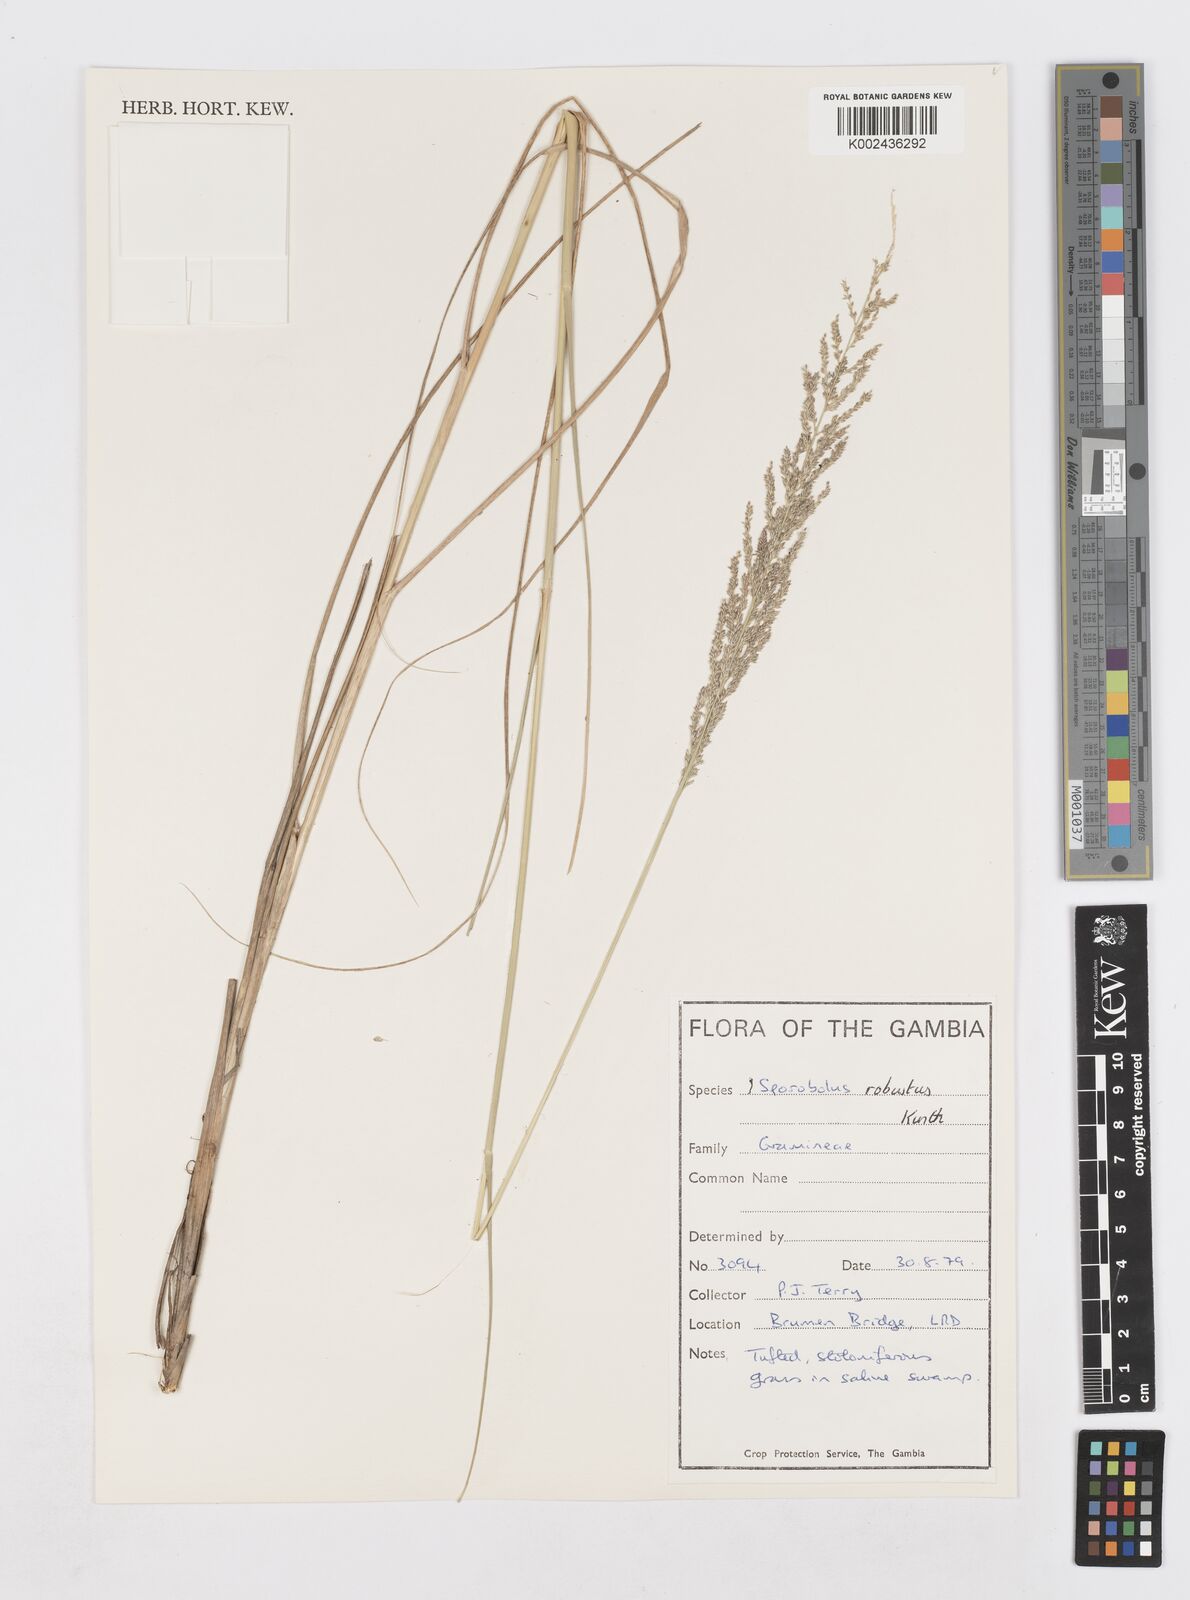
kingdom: Plantae
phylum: Tracheophyta
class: Liliopsida
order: Poales
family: Poaceae
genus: Sporobolus
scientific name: Sporobolus robustus
